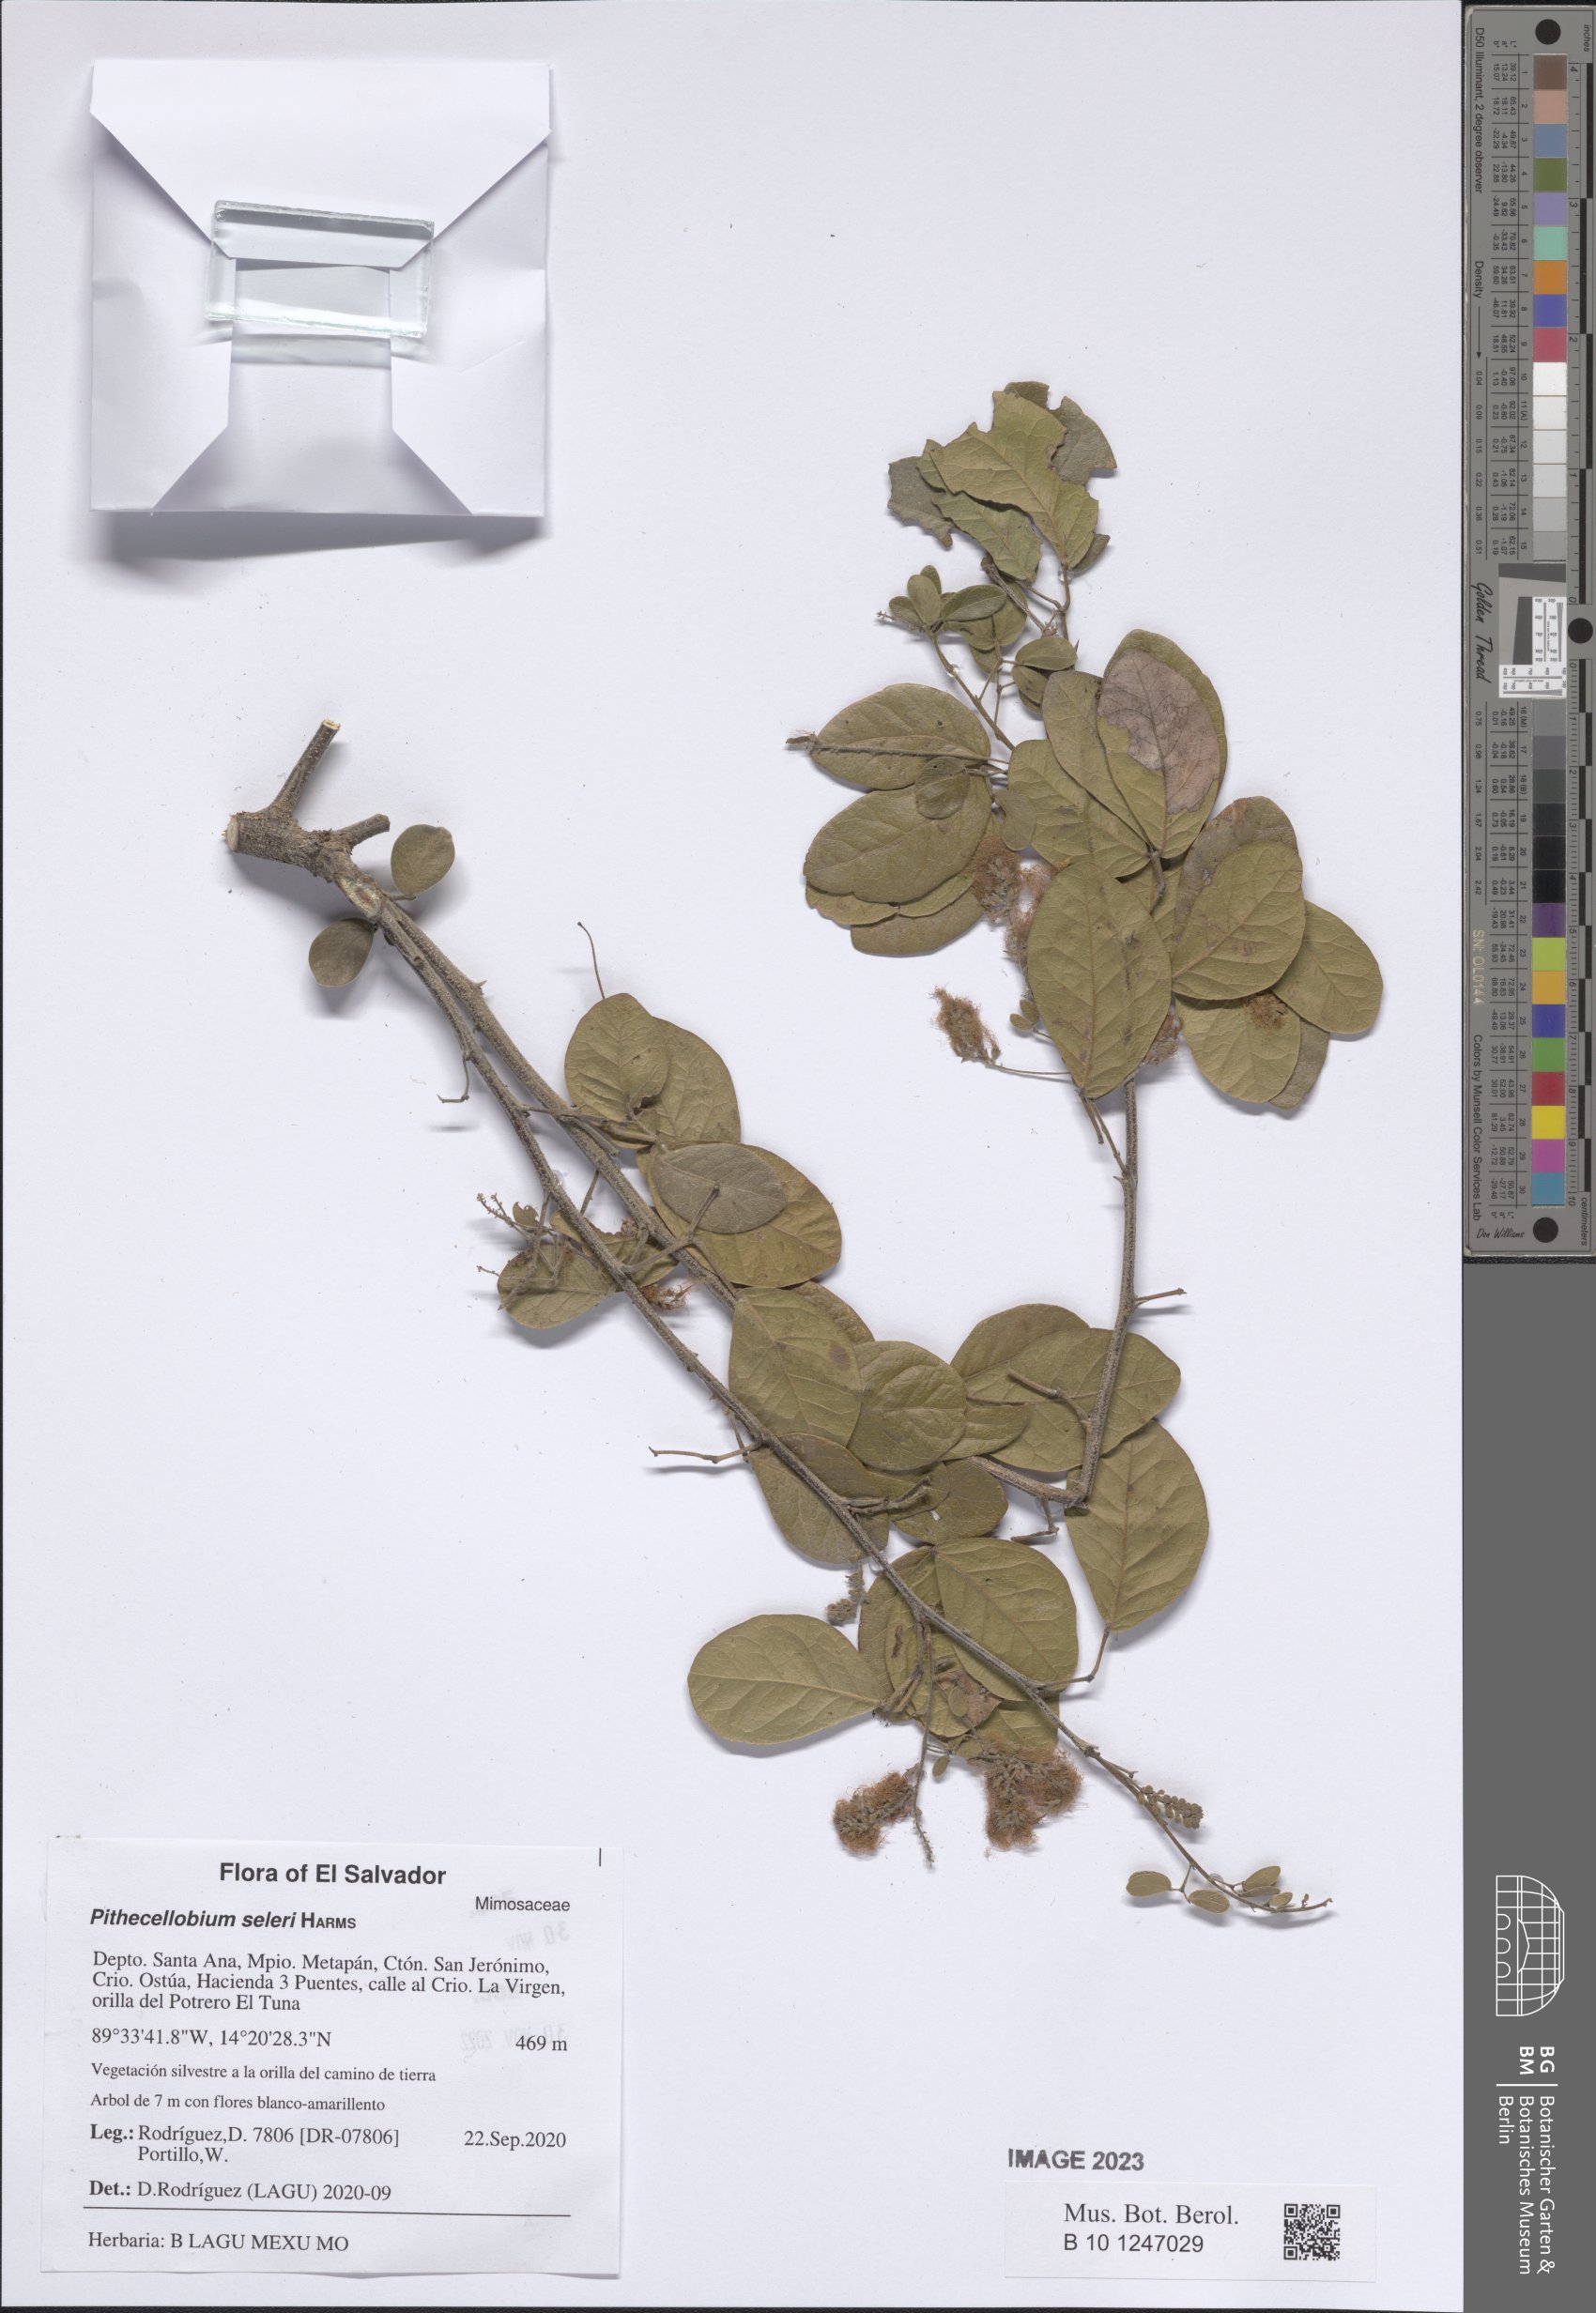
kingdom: Plantae
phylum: Tracheophyta
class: Magnoliopsida
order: Fabales
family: Fabaceae
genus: Pithecellobium
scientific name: Pithecellobium unguis-cati
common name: Cat's-claw
